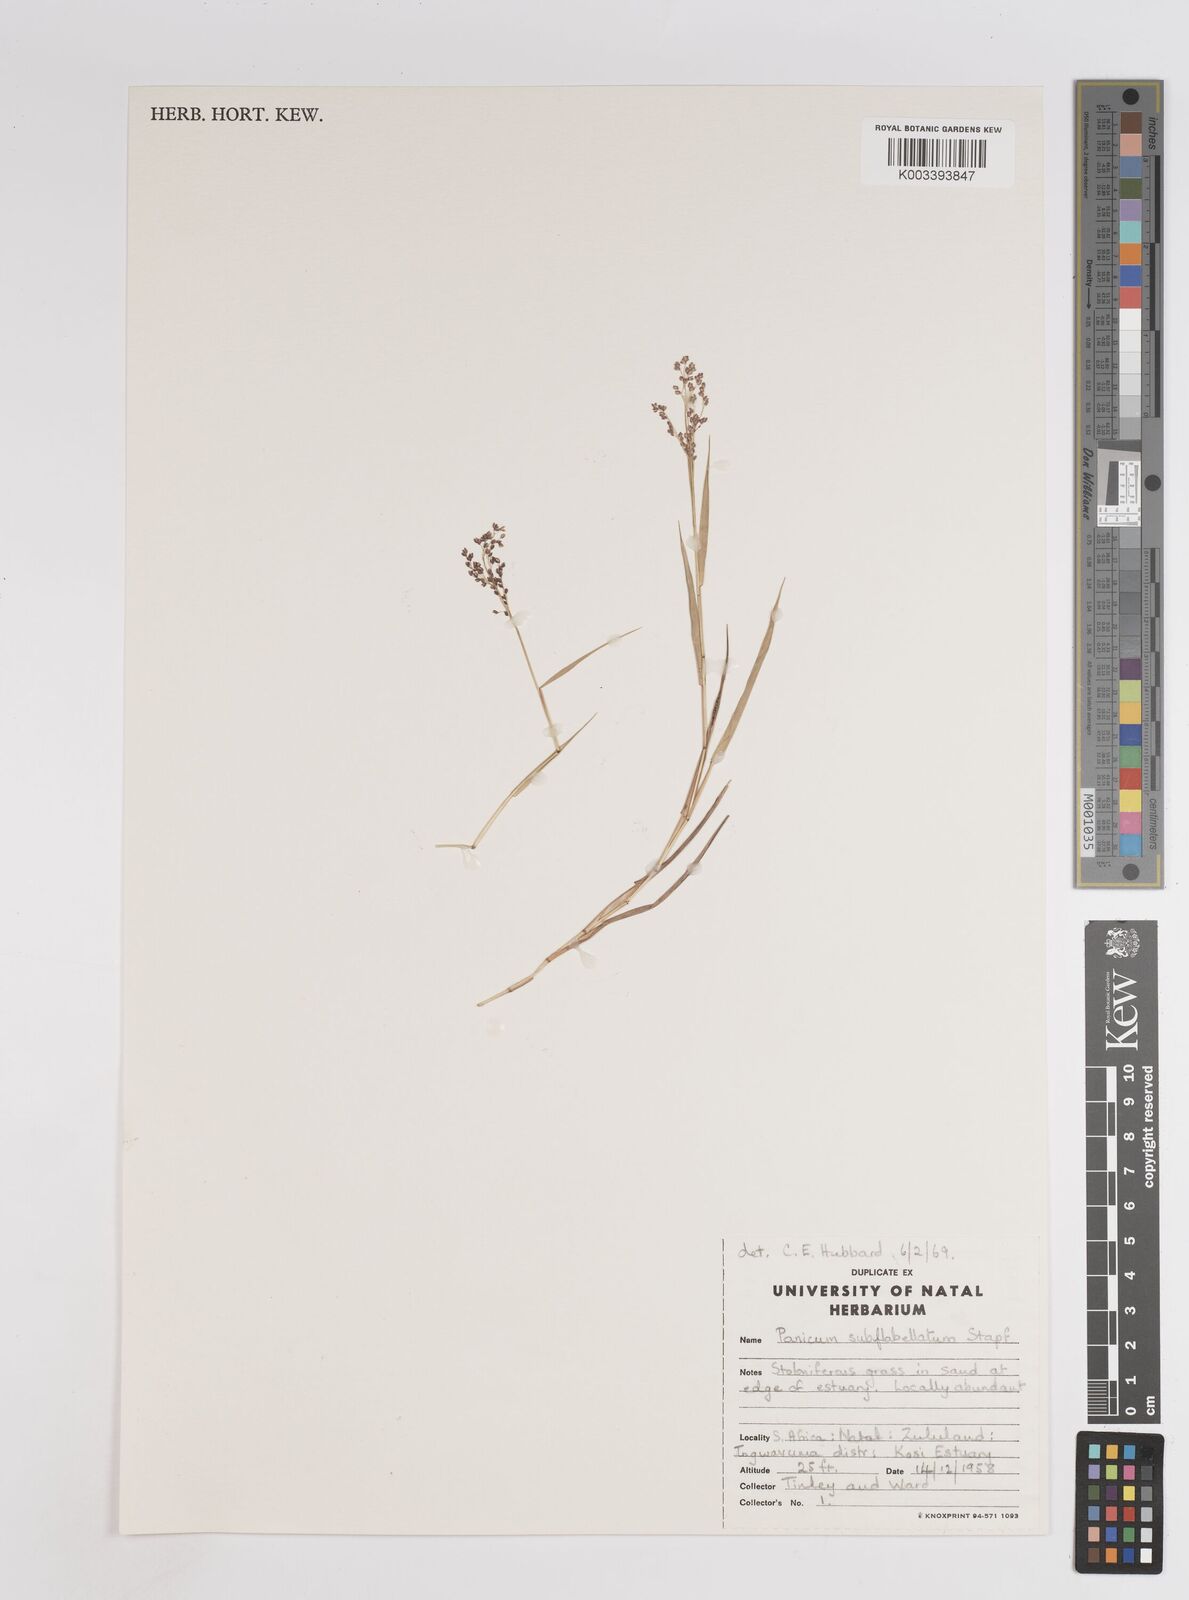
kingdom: Plantae
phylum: Tracheophyta
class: Liliopsida
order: Poales
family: Poaceae
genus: Panicum
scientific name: Panicum subflabellatum
